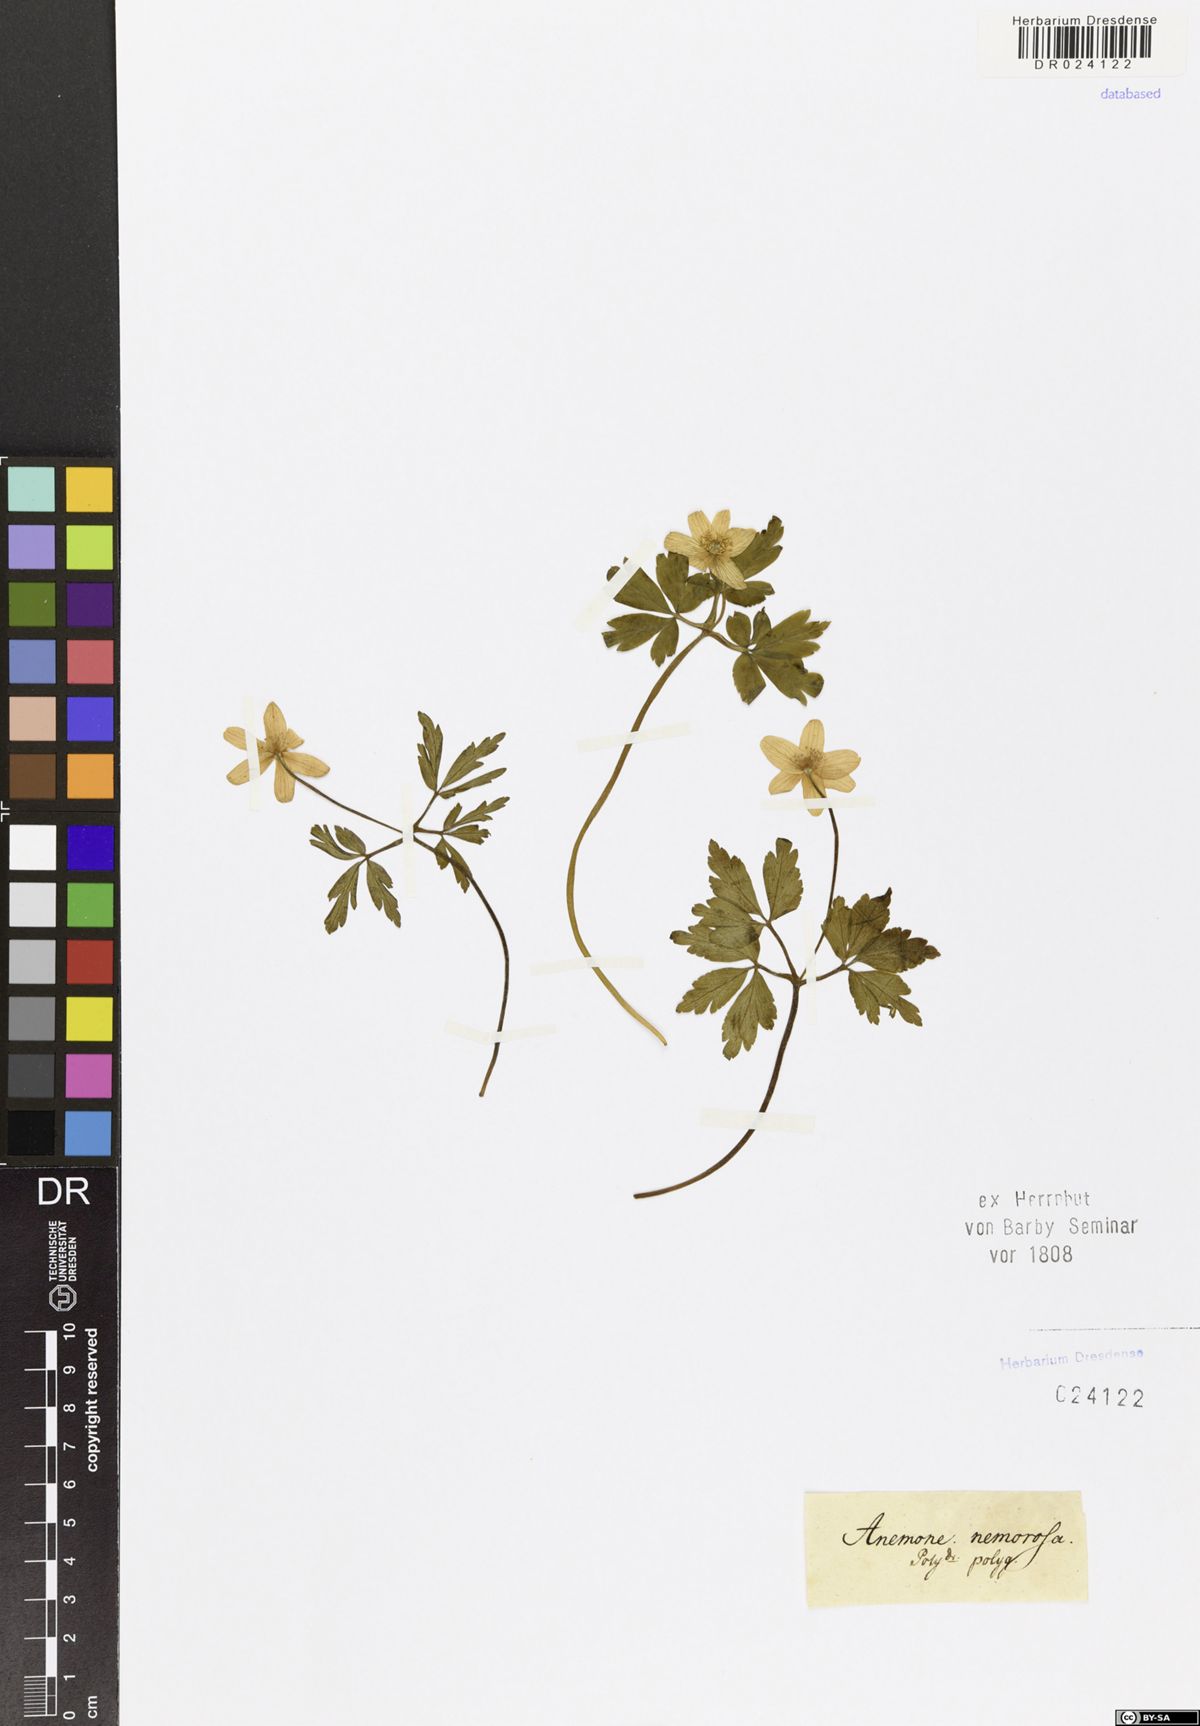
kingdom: Plantae
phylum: Tracheophyta
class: Magnoliopsida
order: Ranunculales
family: Ranunculaceae
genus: Anemone
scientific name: Anemone nemorosa
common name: Wood anemone
